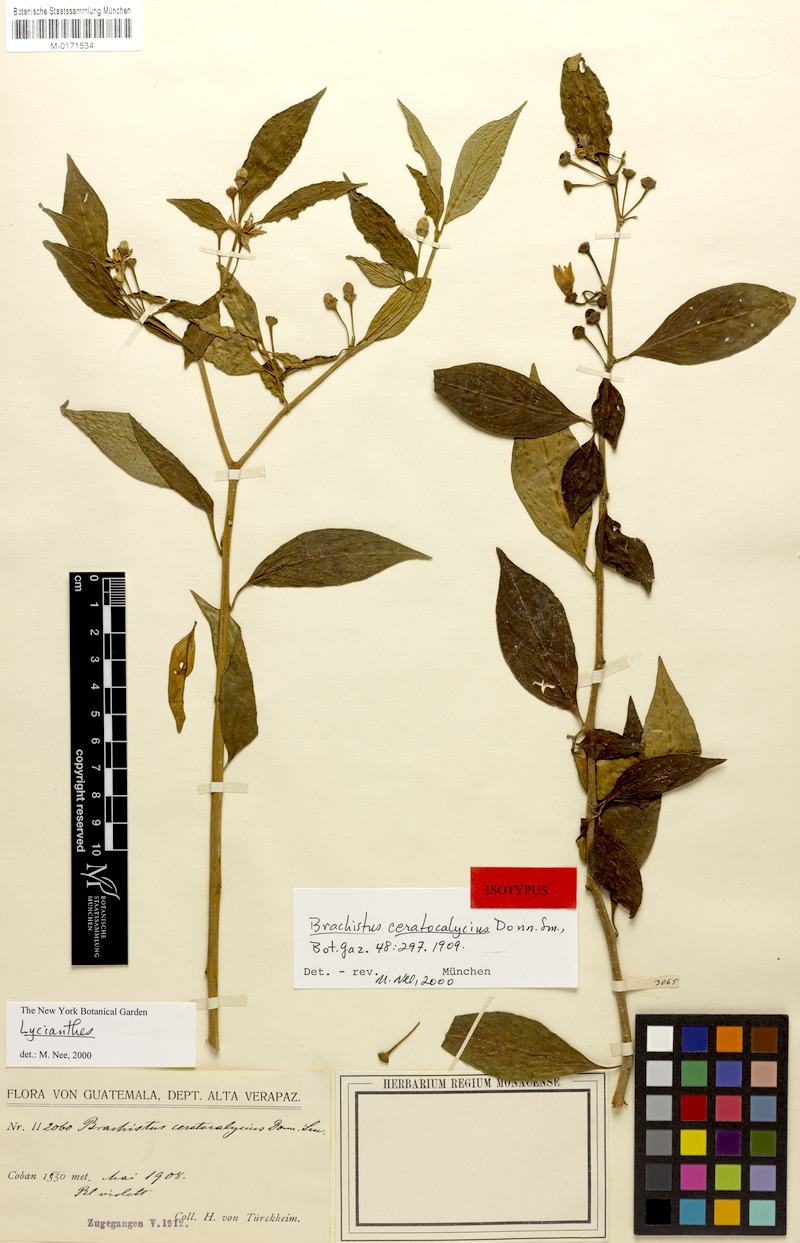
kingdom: Plantae
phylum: Tracheophyta
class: Magnoliopsida
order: Solanales
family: Solanaceae
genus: Lycianthes
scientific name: Lycianthes ceratocalycia
